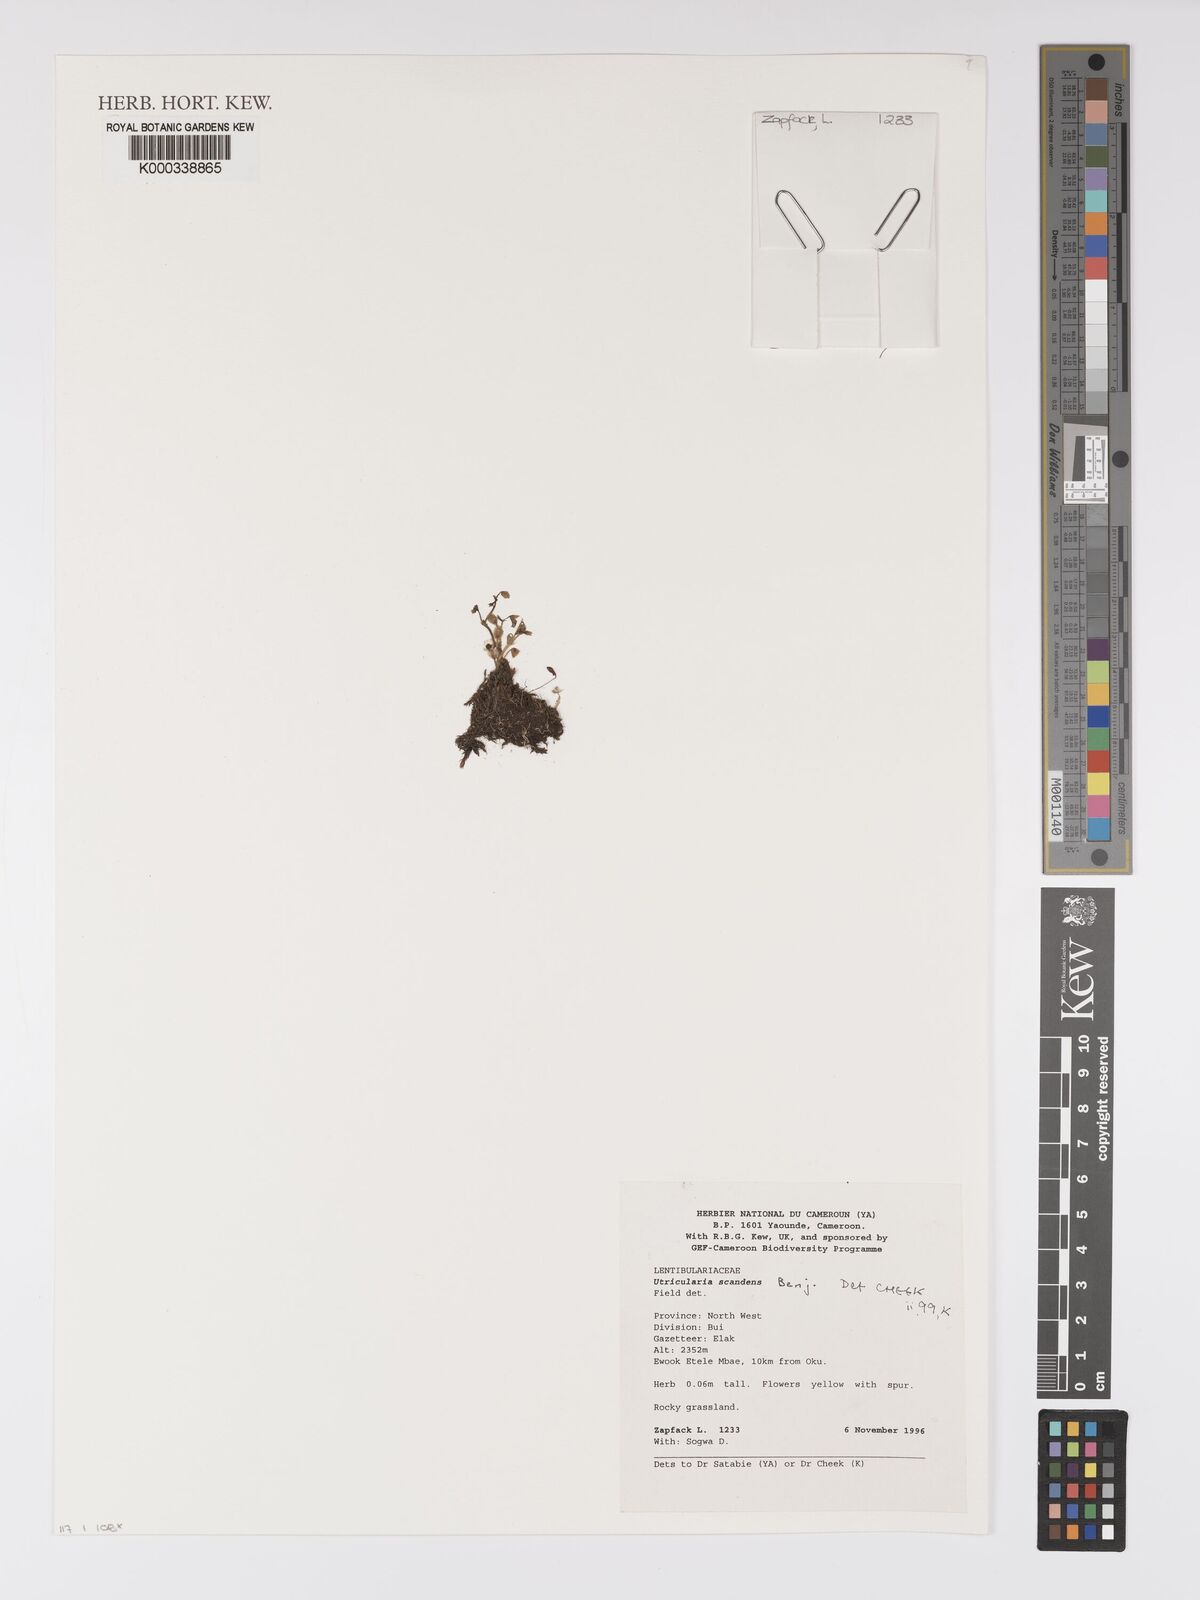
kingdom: Plantae
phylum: Tracheophyta
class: Magnoliopsida
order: Lamiales
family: Lentibulariaceae
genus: Utricularia
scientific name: Utricularia scandens
